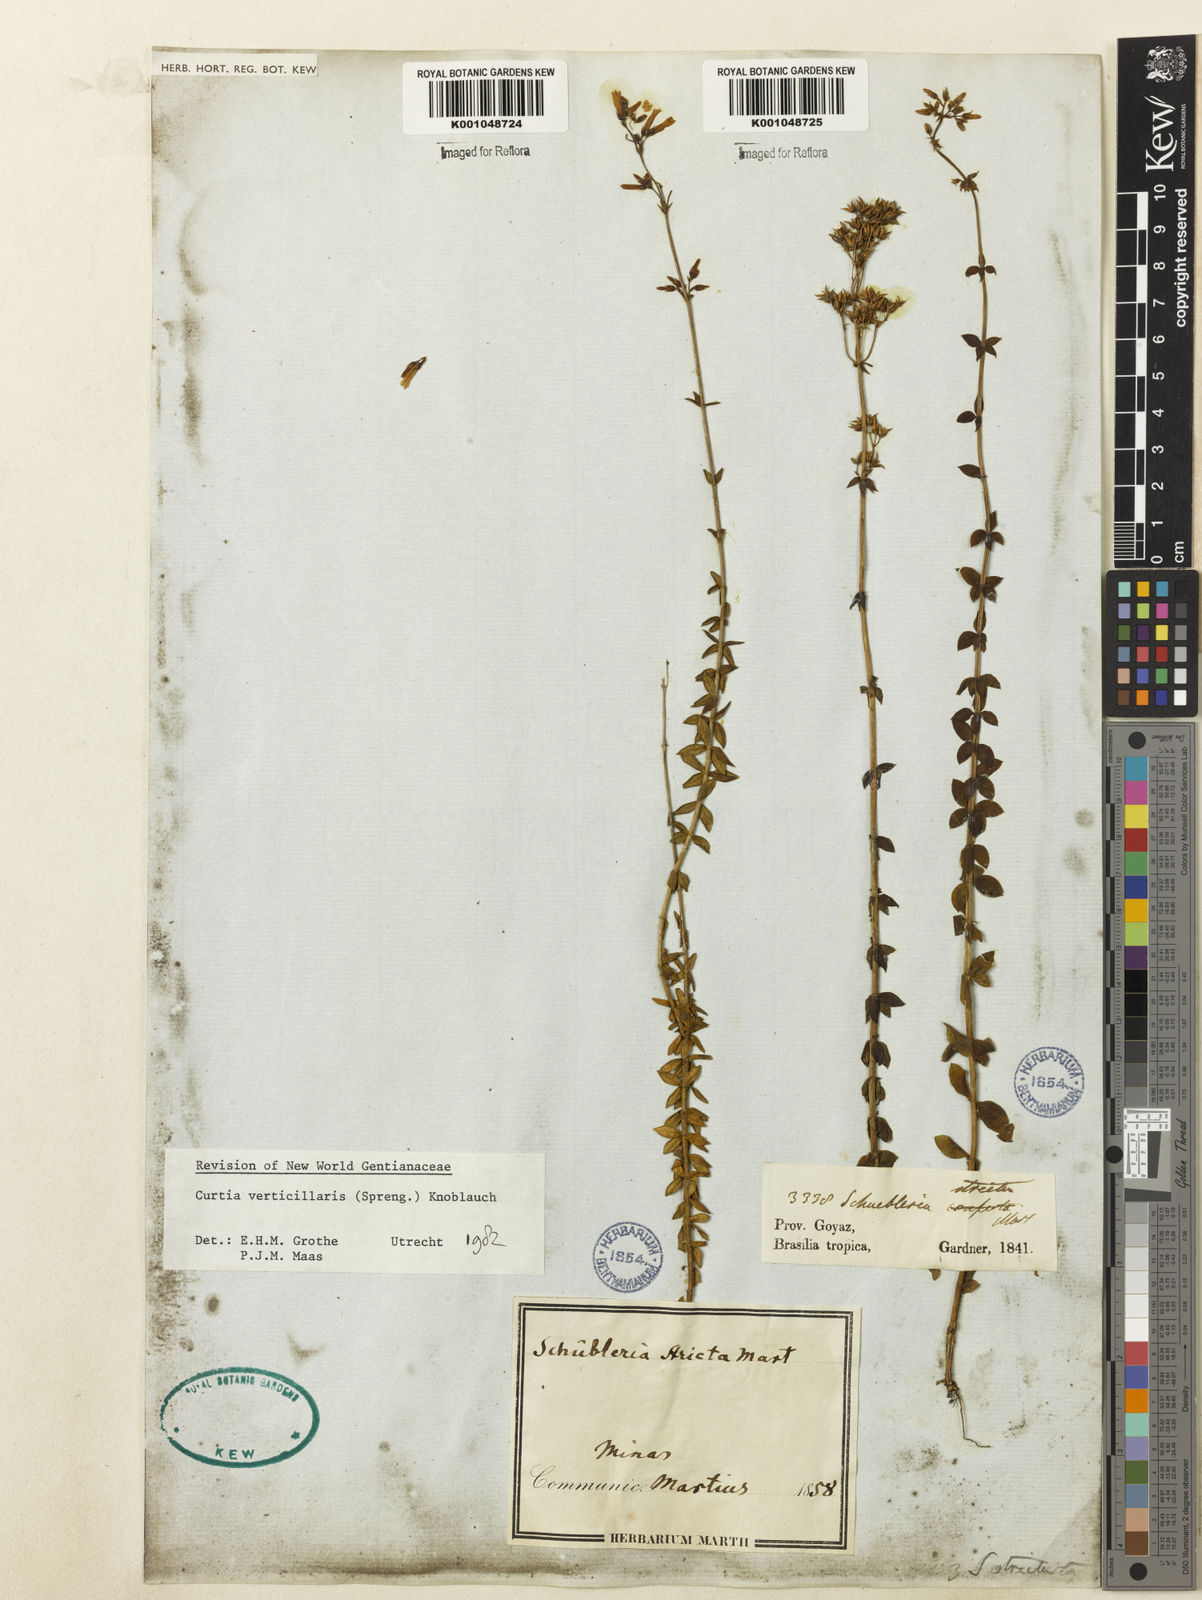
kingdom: Plantae
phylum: Tracheophyta
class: Magnoliopsida
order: Gentianales
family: Gentianaceae
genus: Curtia
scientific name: Curtia verticillaris
